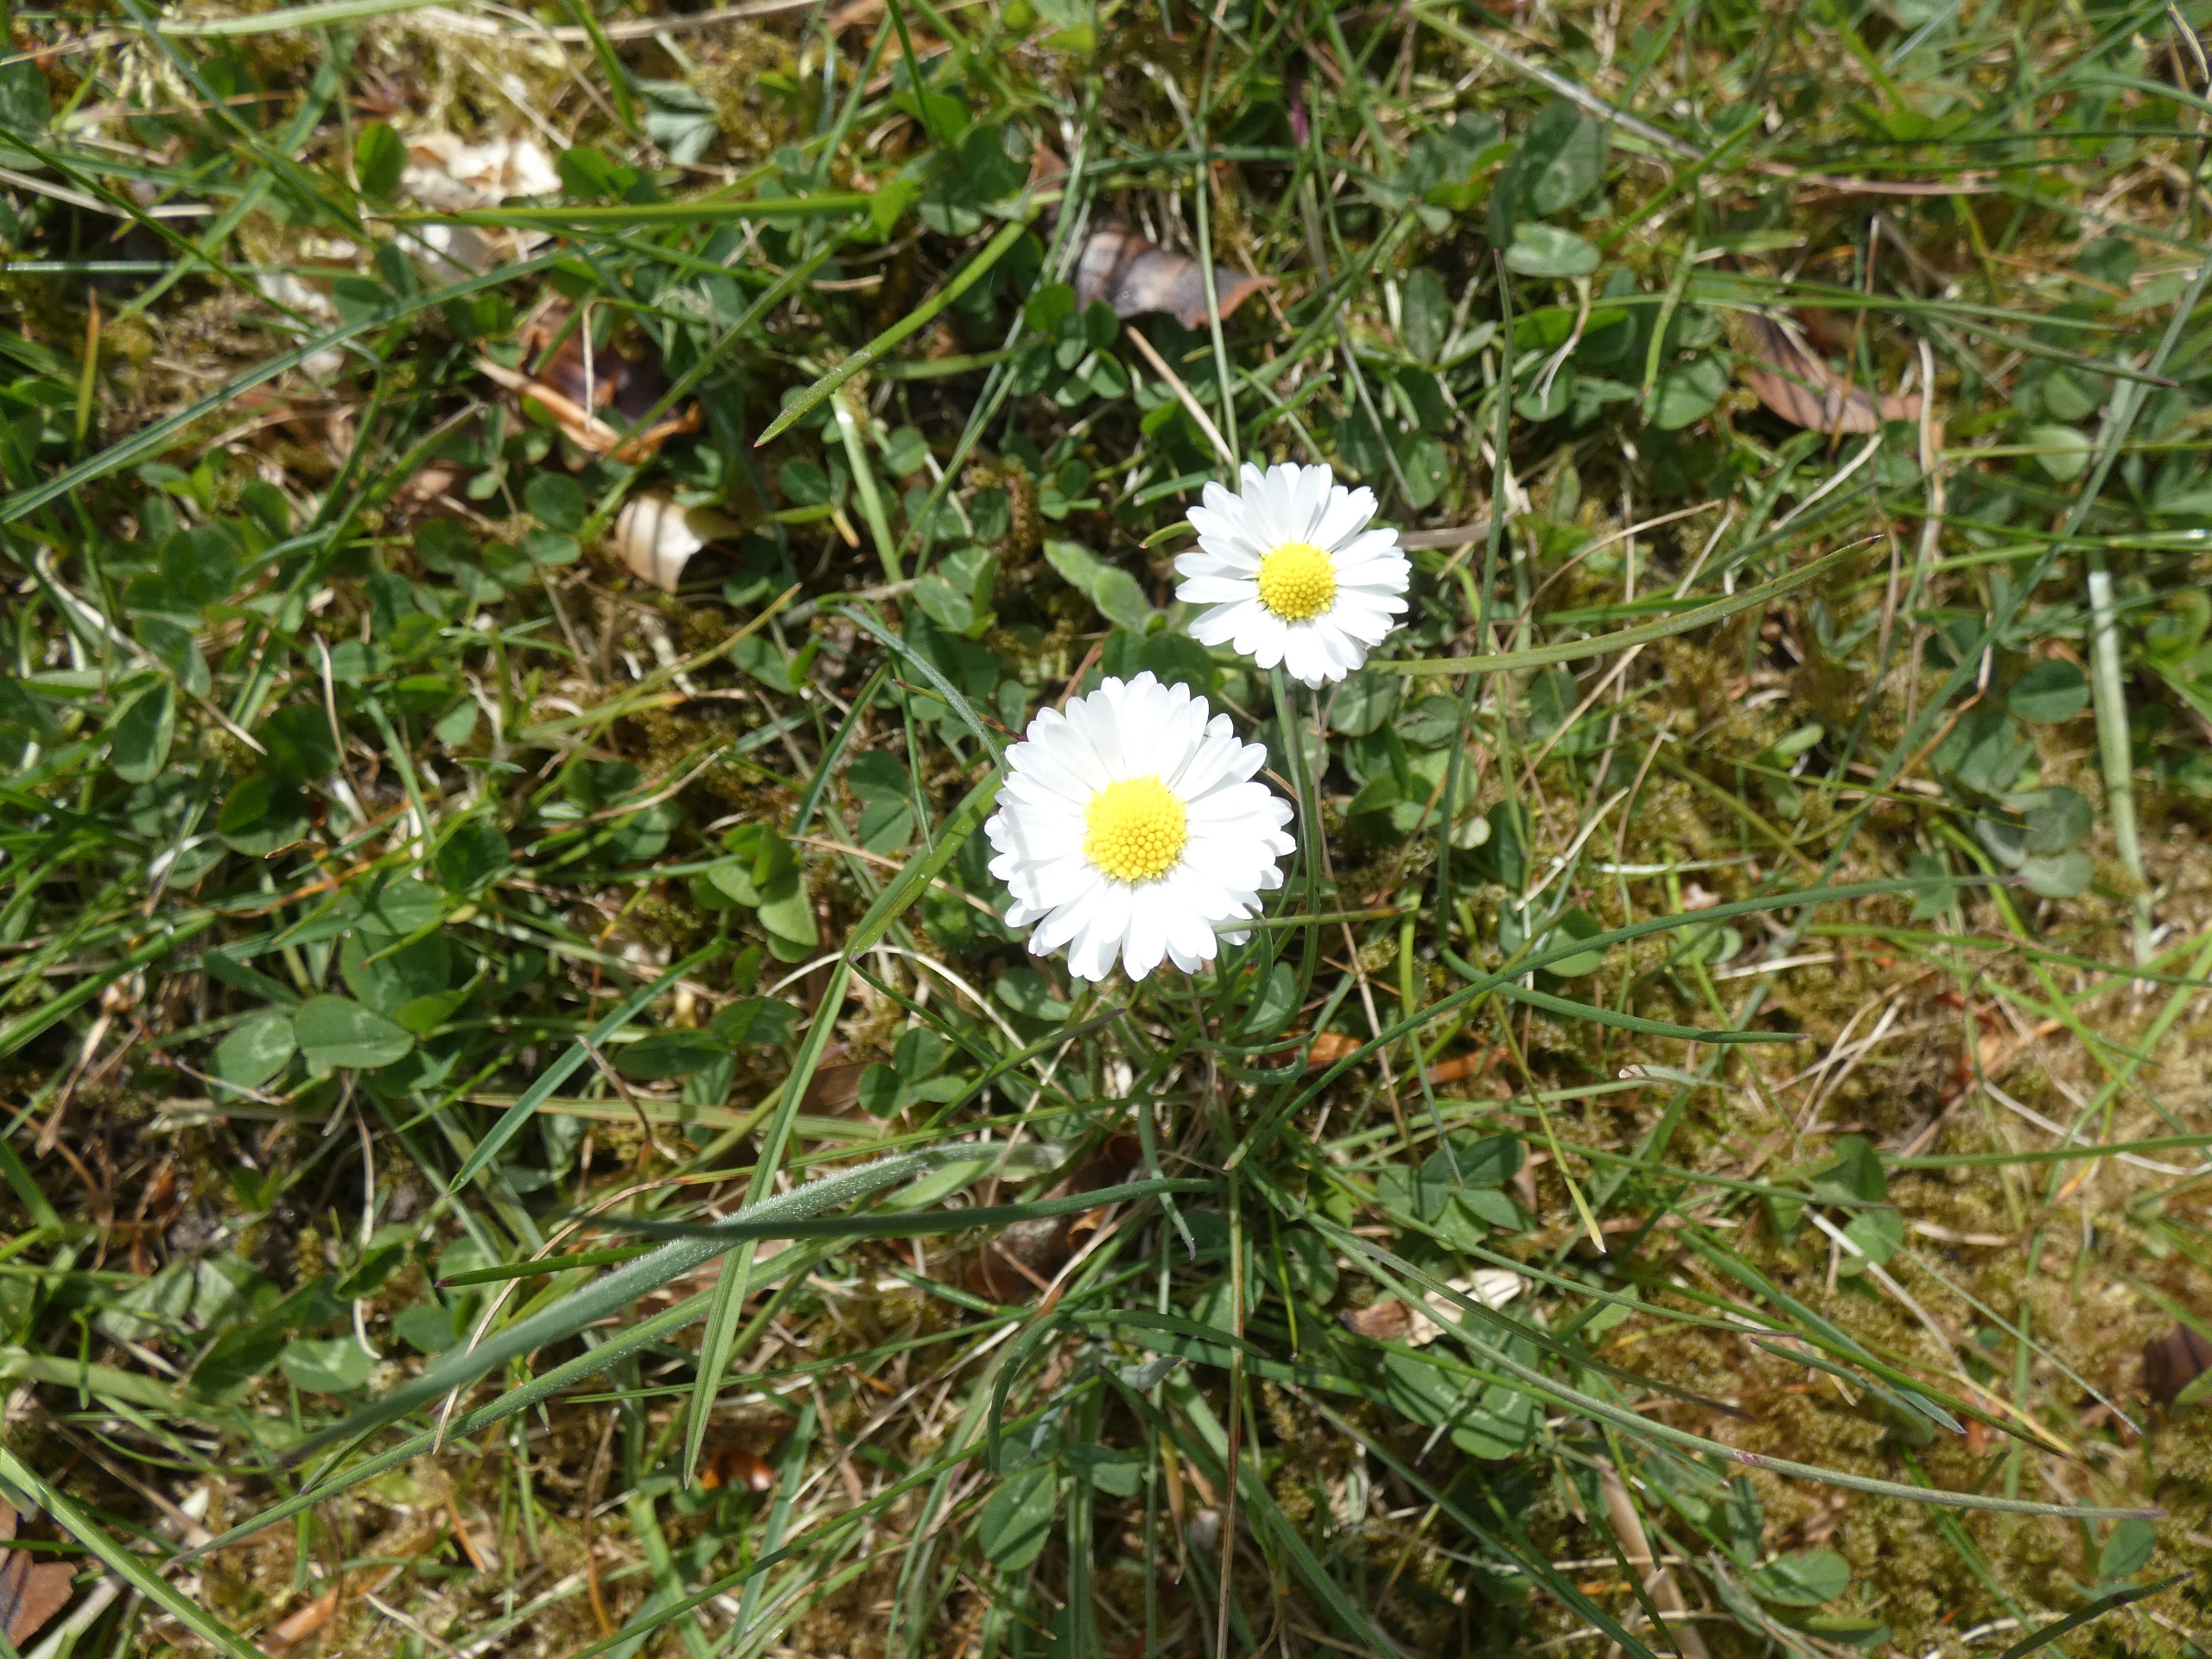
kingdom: Plantae
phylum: Tracheophyta
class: Magnoliopsida
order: Asterales
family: Asteraceae
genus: Bellis
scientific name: Bellis perennis
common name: Tusindfryd
